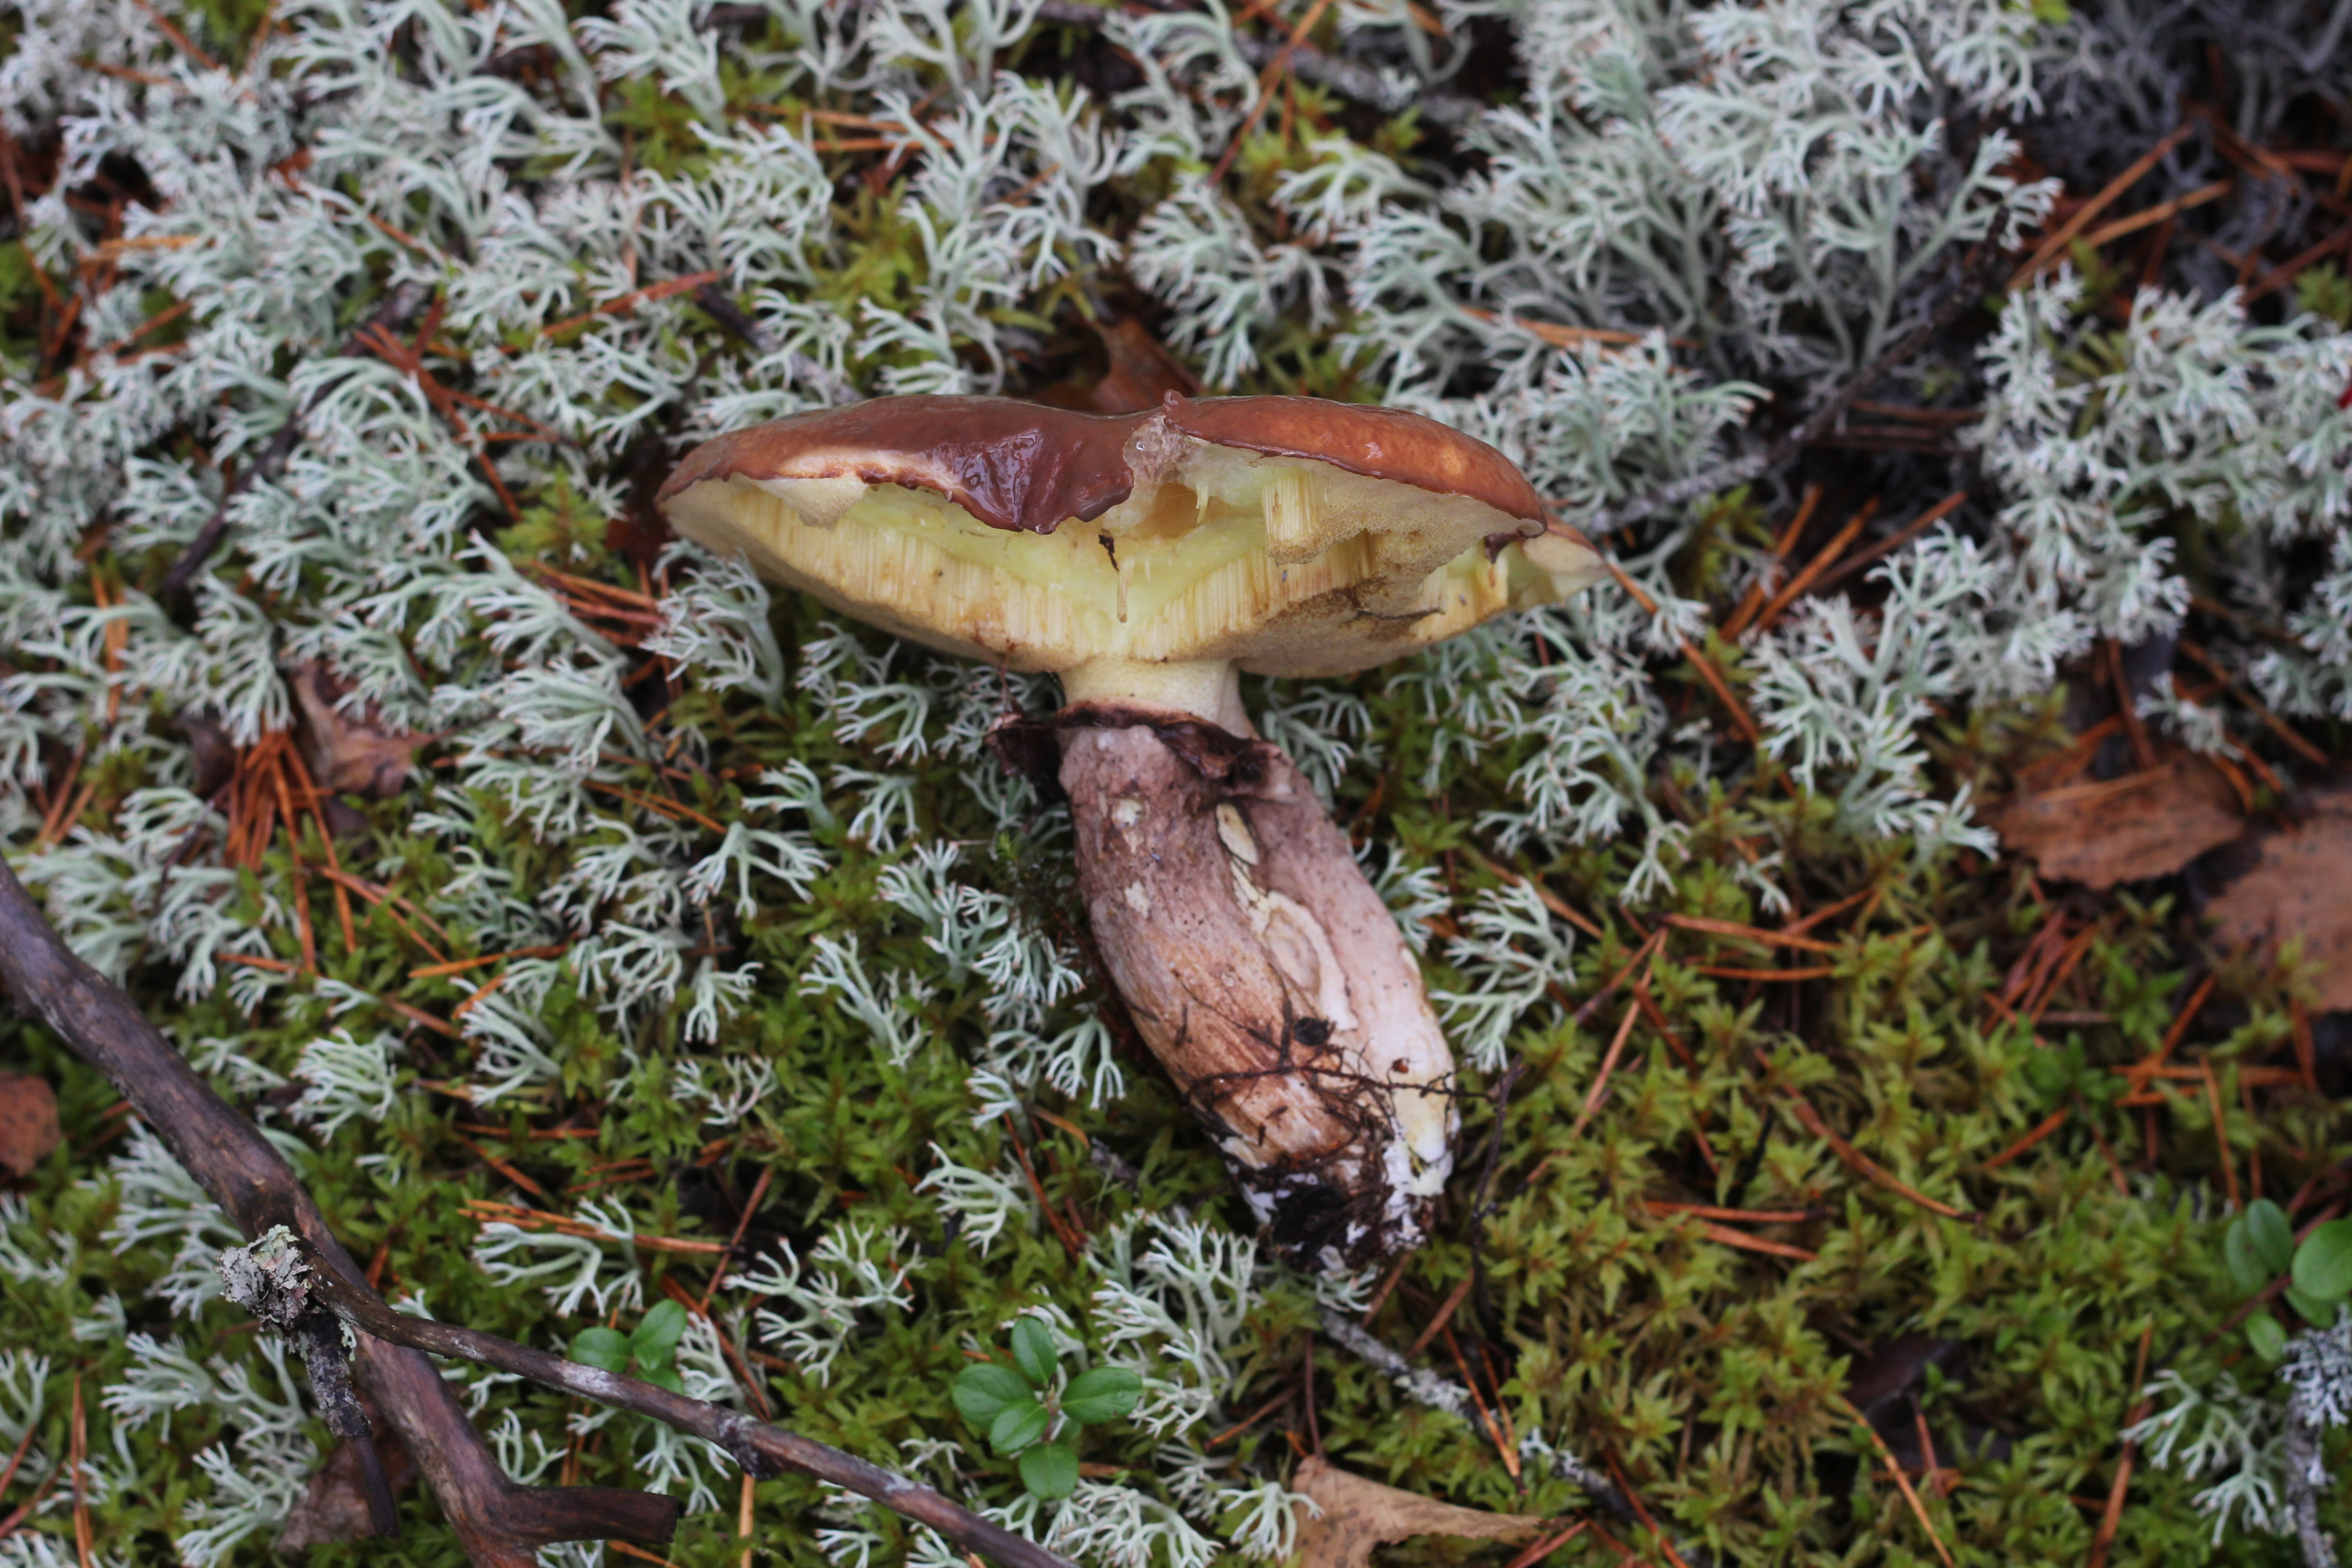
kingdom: Fungi
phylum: Basidiomycota
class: Agaricomycetes
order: Boletales
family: Suillaceae
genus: Suillus
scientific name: Suillus luteus
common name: Slippery jack
